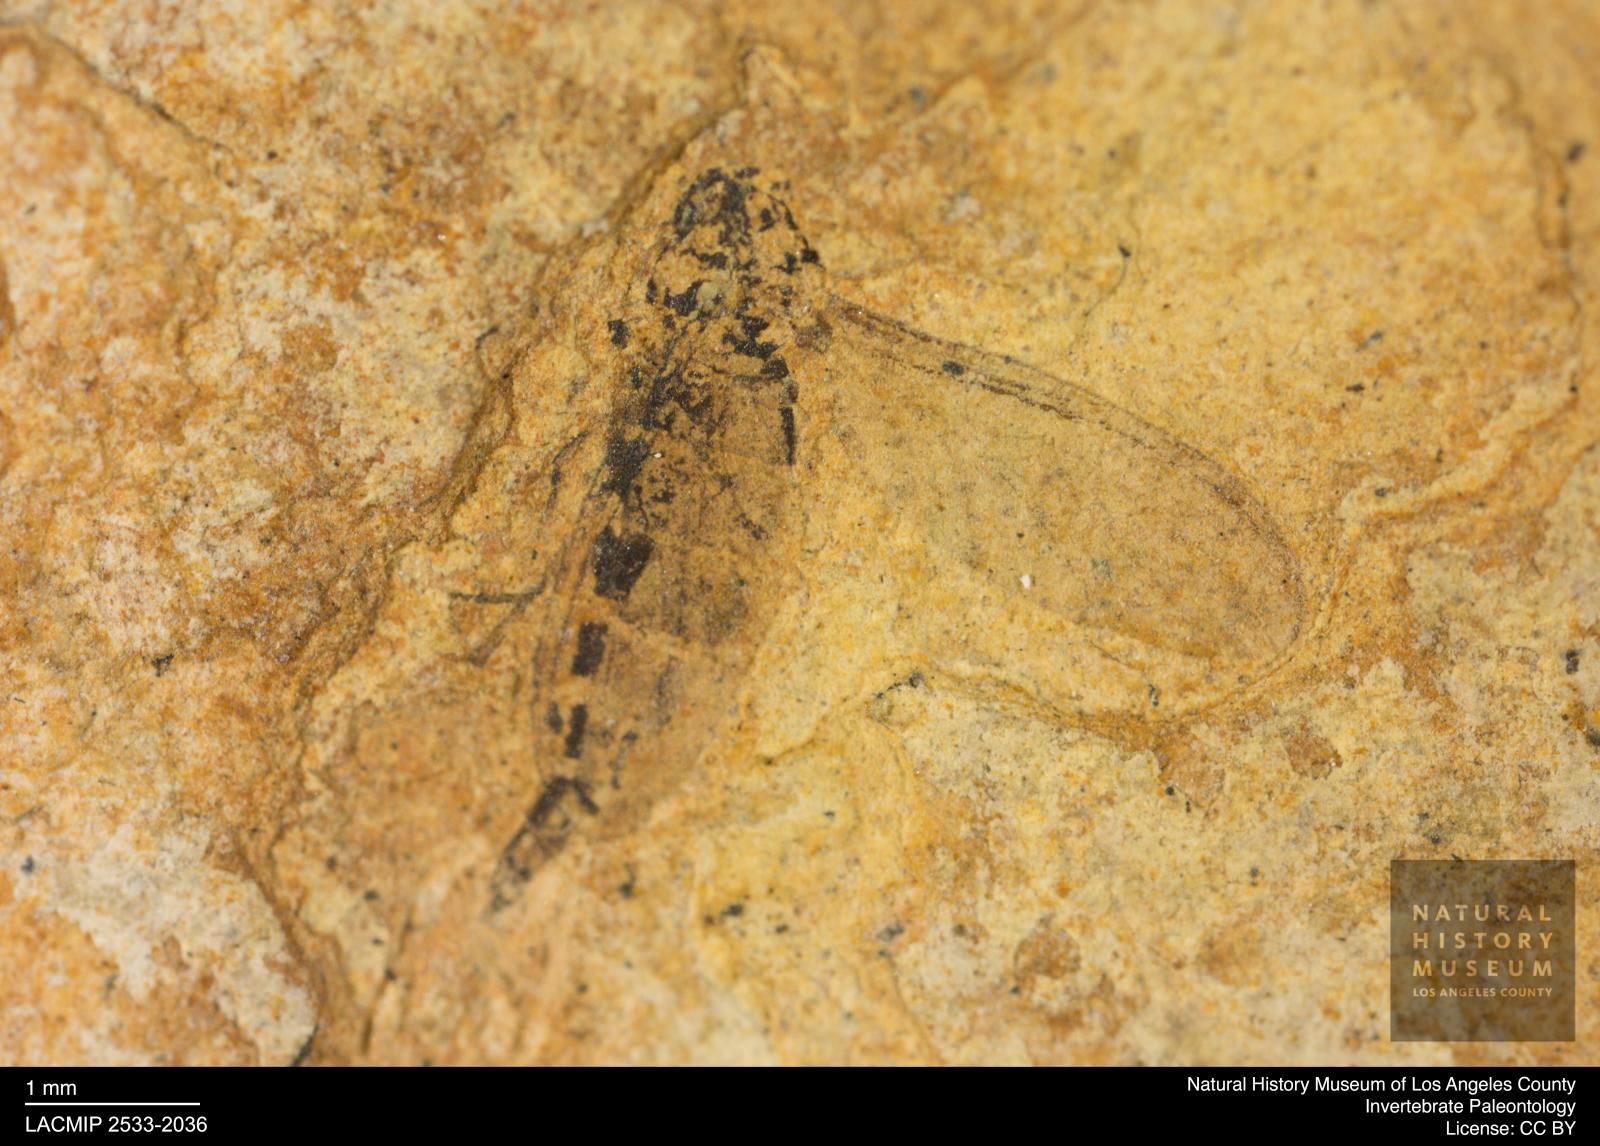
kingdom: Animalia
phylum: Arthropoda
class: Insecta
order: Diptera
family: Sciaridae
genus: Sciara
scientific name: Sciara heydeni
